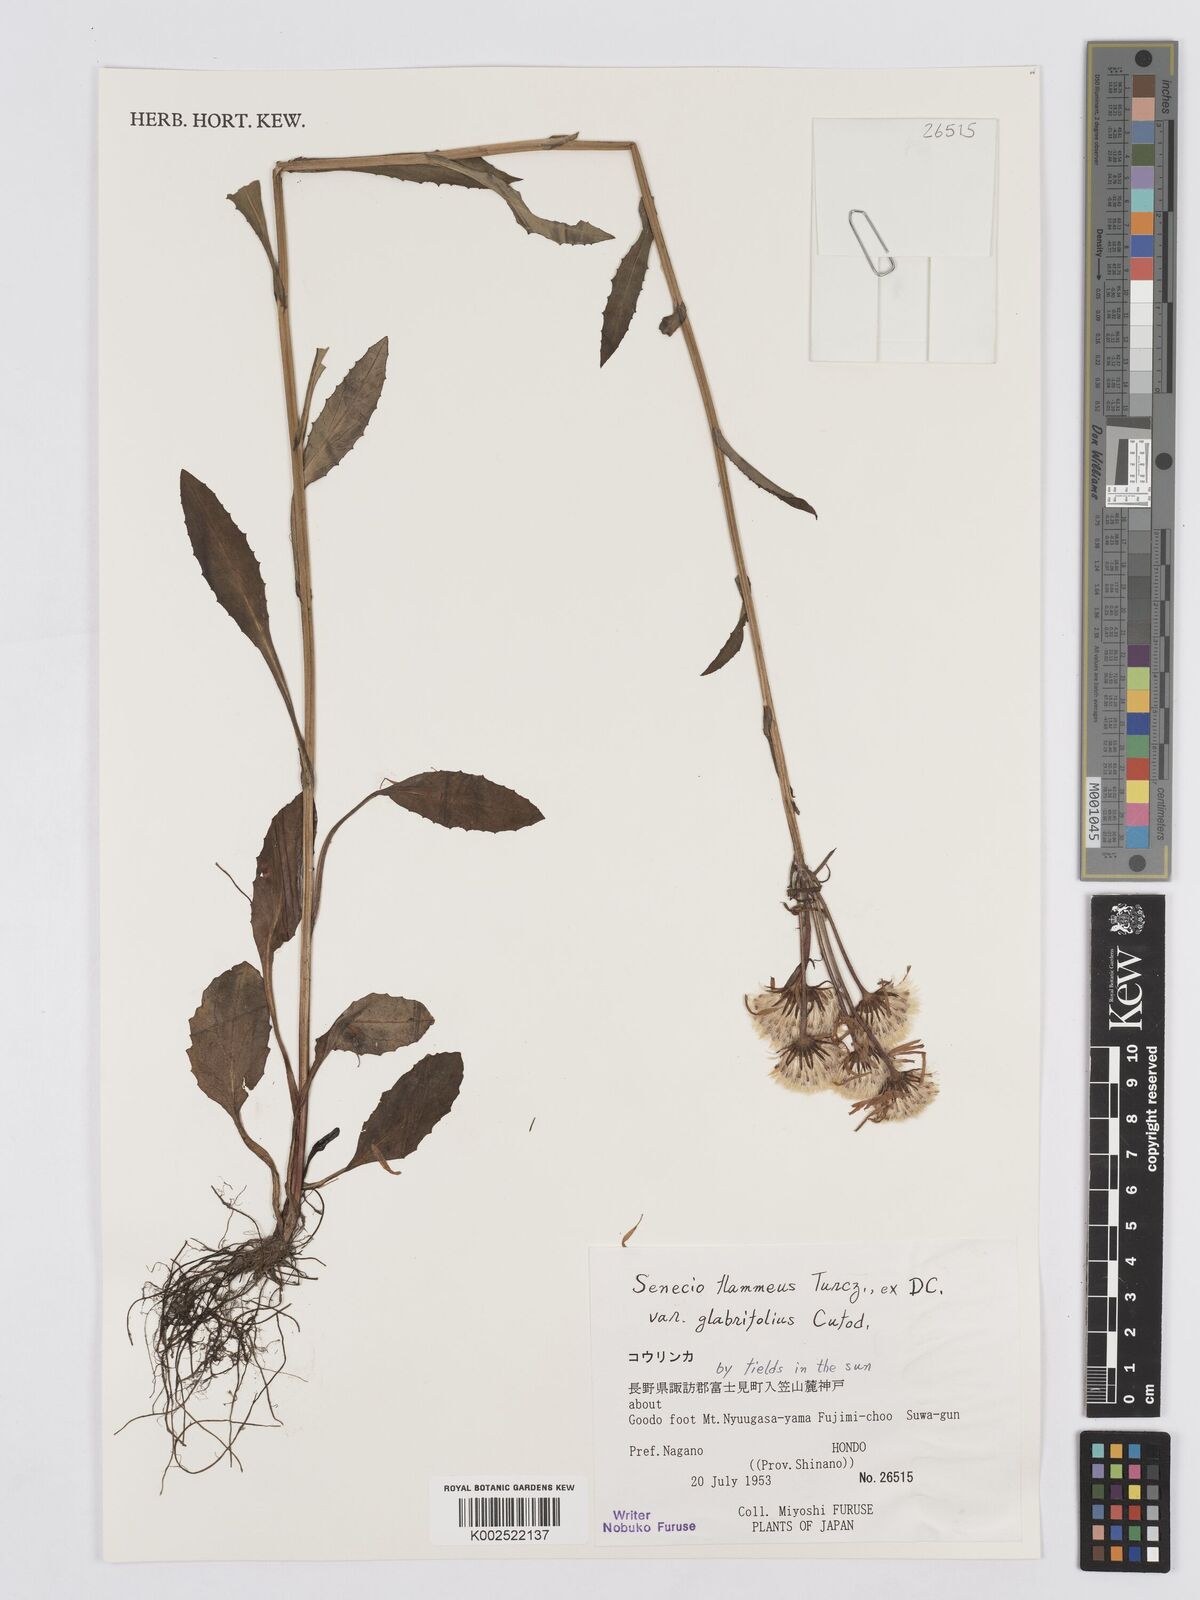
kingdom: Plantae
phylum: Tracheophyta
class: Magnoliopsida
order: Asterales
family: Asteraceae
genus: Tephroseris
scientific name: Tephroseris flammea
